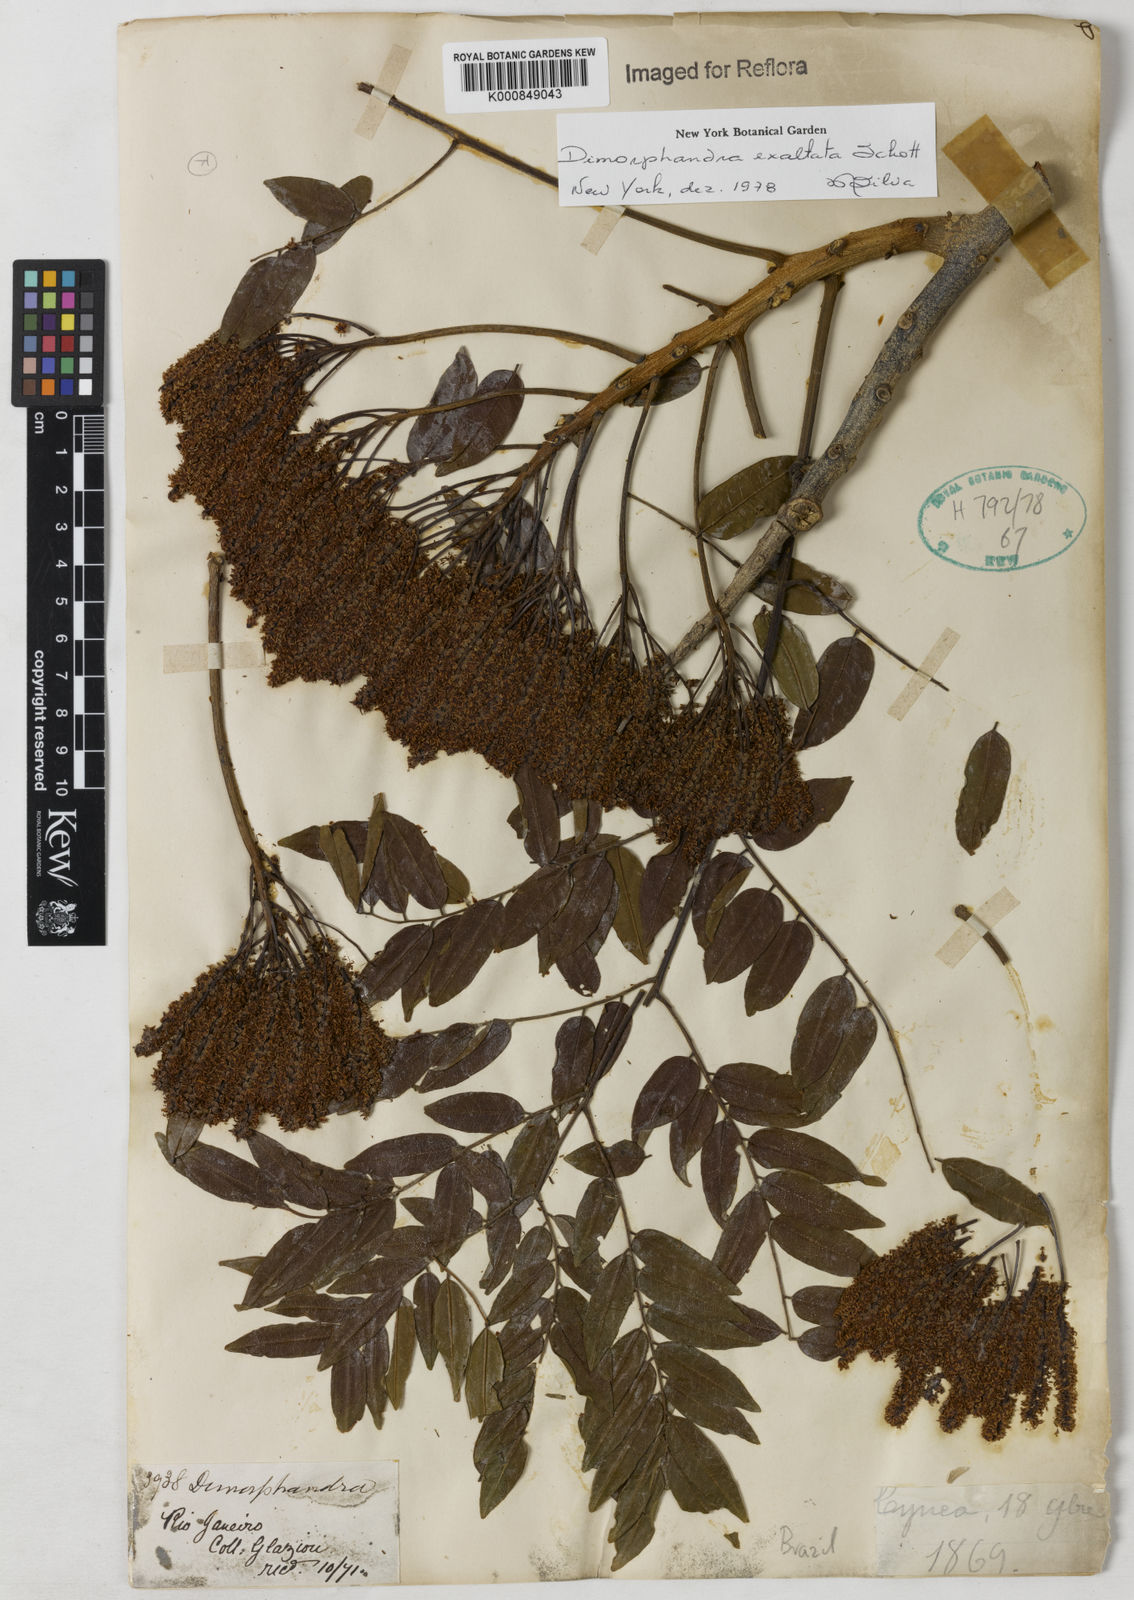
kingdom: Plantae
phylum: Tracheophyta
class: Magnoliopsida
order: Fabales
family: Fabaceae
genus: Dimorphandra
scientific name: Dimorphandra exaltata
